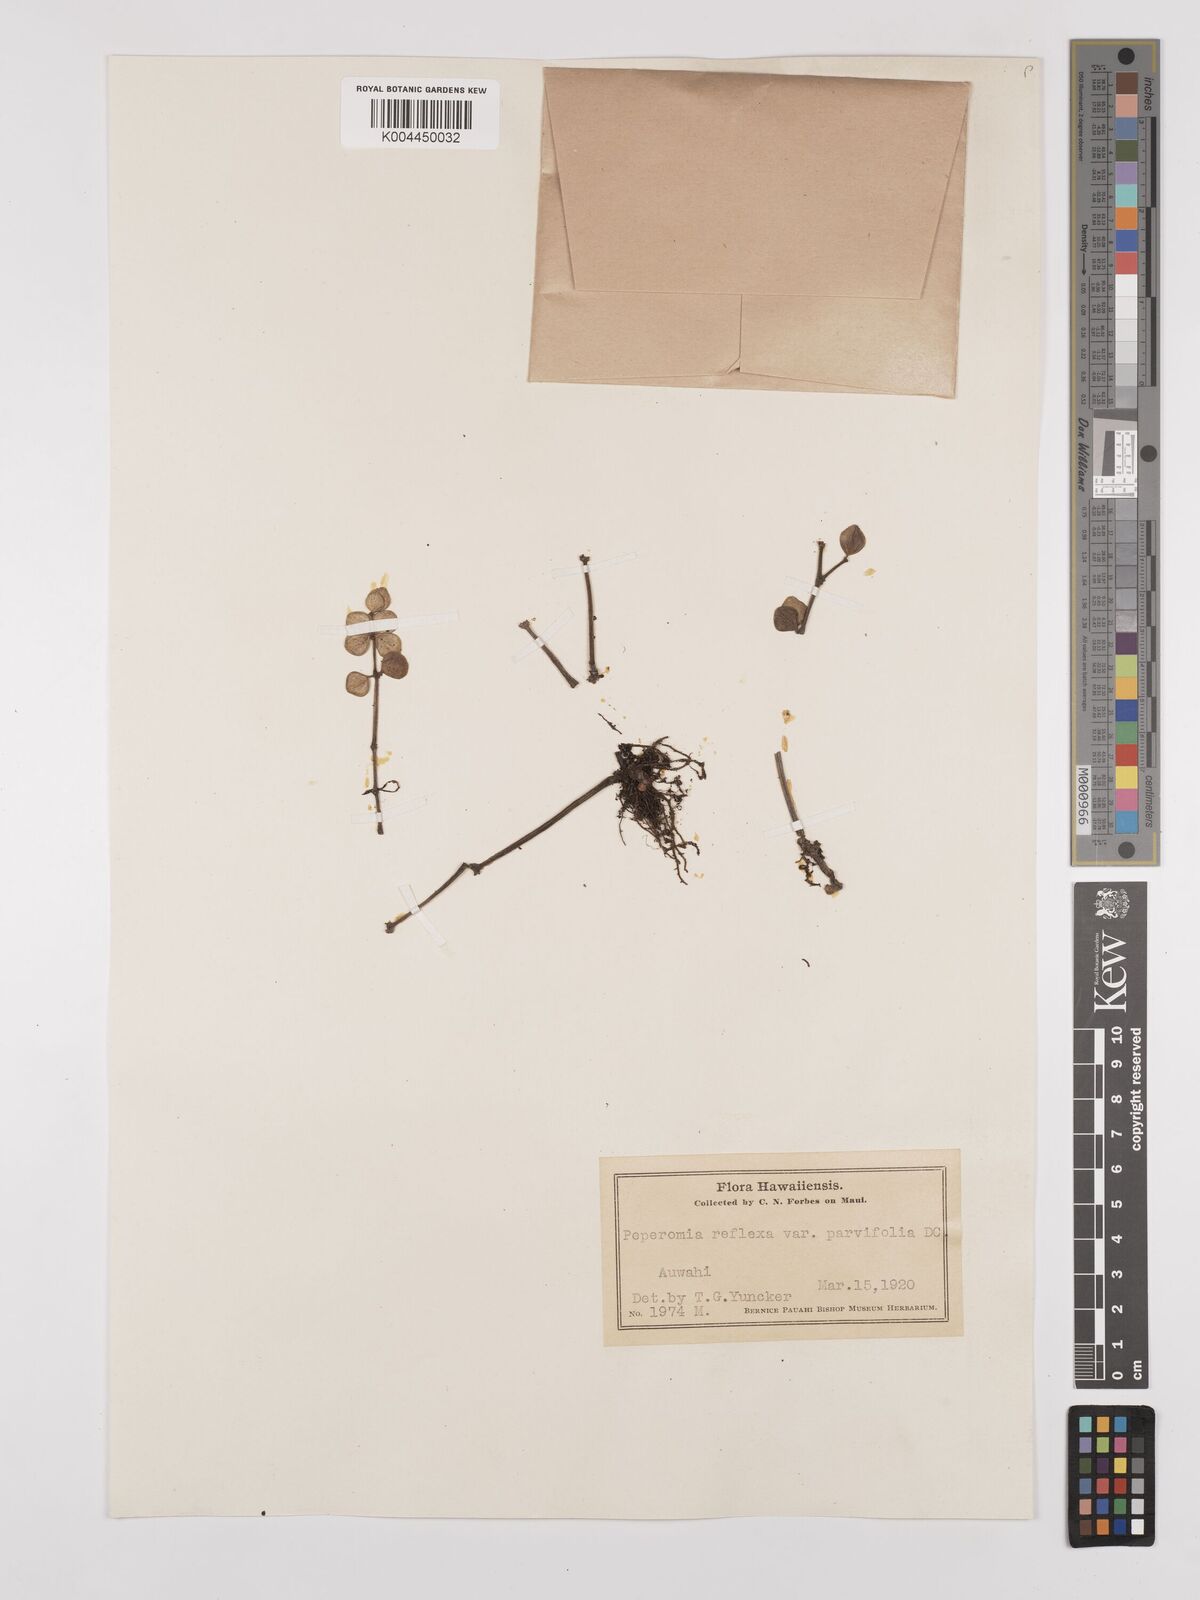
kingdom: Plantae
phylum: Tracheophyta
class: Magnoliopsida
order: Piperales
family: Piperaceae
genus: Peperomia
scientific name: Peperomia tetraphylla
